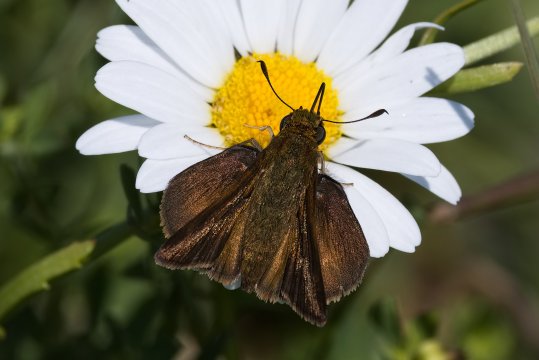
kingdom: Animalia
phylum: Arthropoda
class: Insecta
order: Lepidoptera
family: Hesperiidae
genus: Euphyes
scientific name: Euphyes vestris
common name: Dun Skipper
